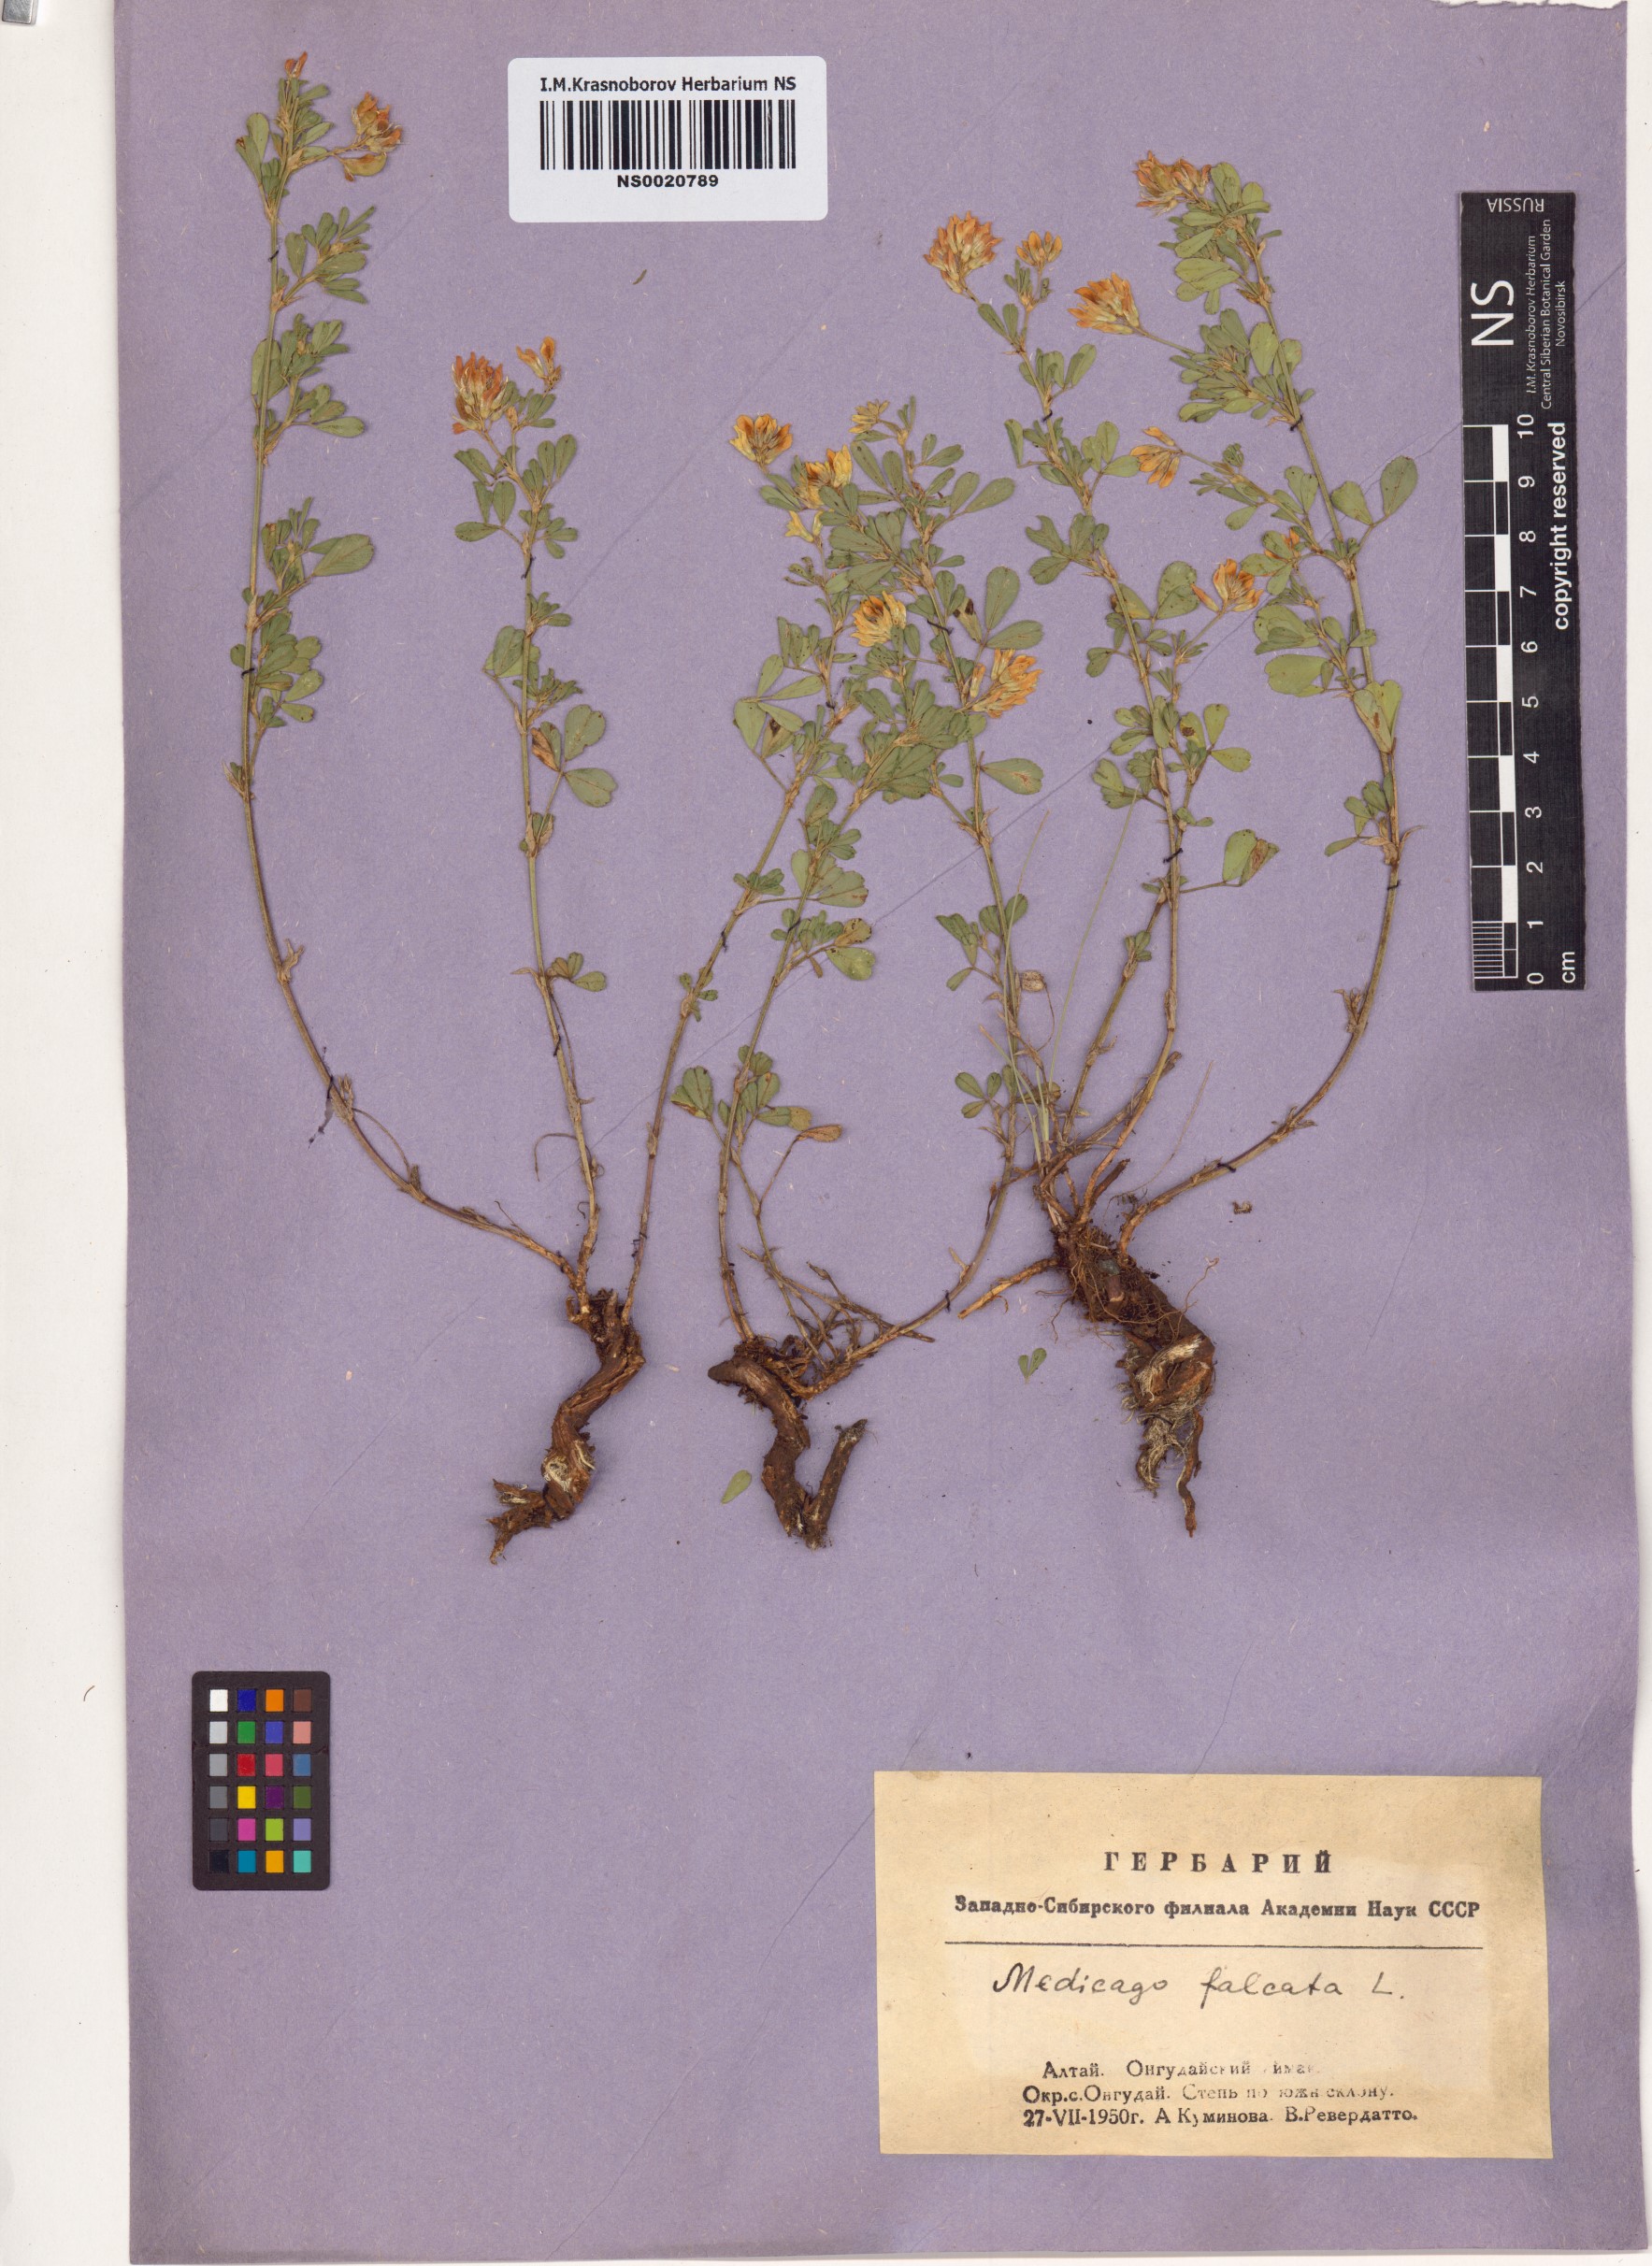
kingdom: Plantae
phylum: Tracheophyta
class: Magnoliopsida
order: Fabales
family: Fabaceae
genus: Medicago
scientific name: Medicago falcata
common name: Sickle medick
